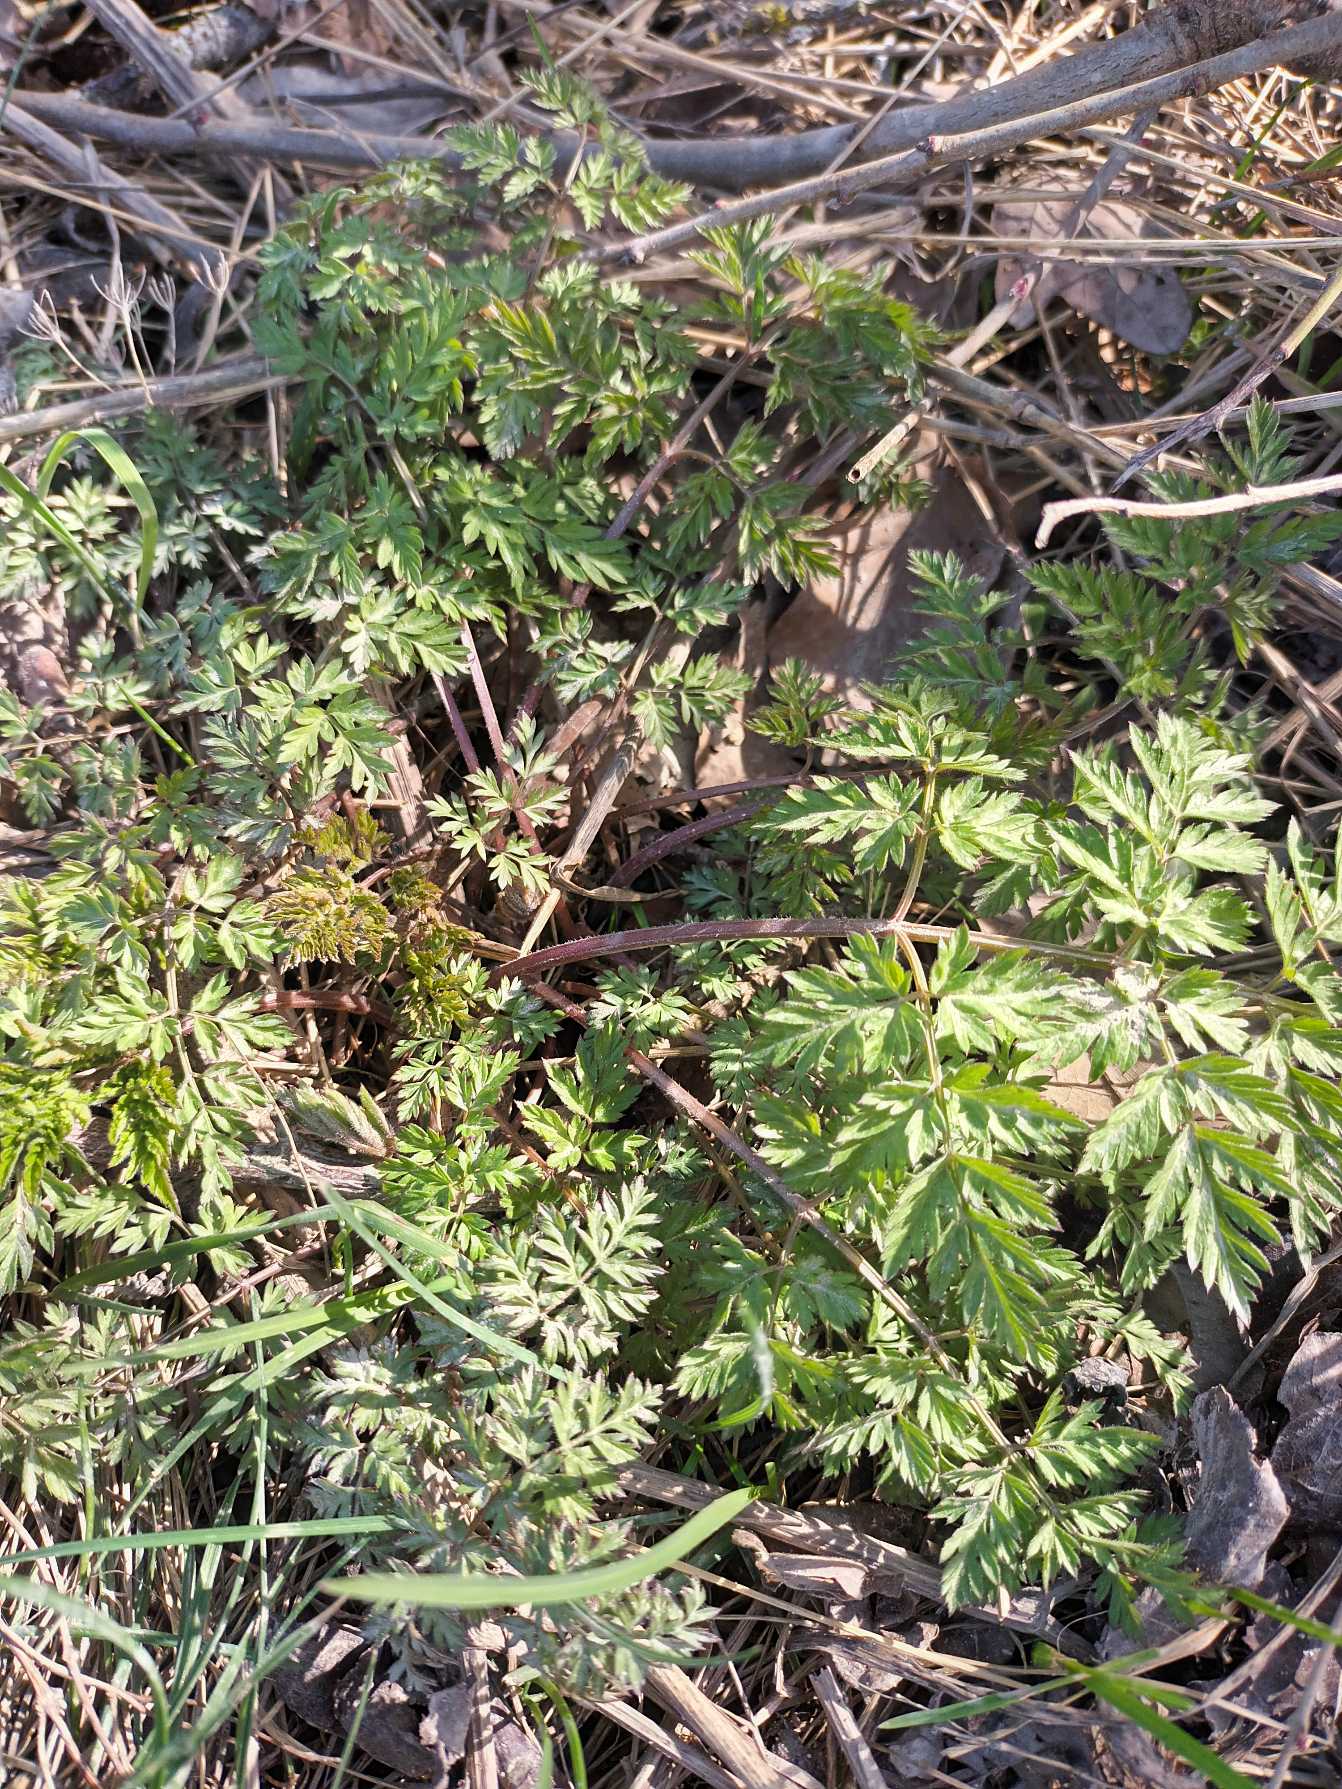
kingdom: Plantae
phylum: Tracheophyta
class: Magnoliopsida
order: Apiales
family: Apiaceae
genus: Anthriscus
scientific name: Anthriscus sylvestris
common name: Vild kørvel
